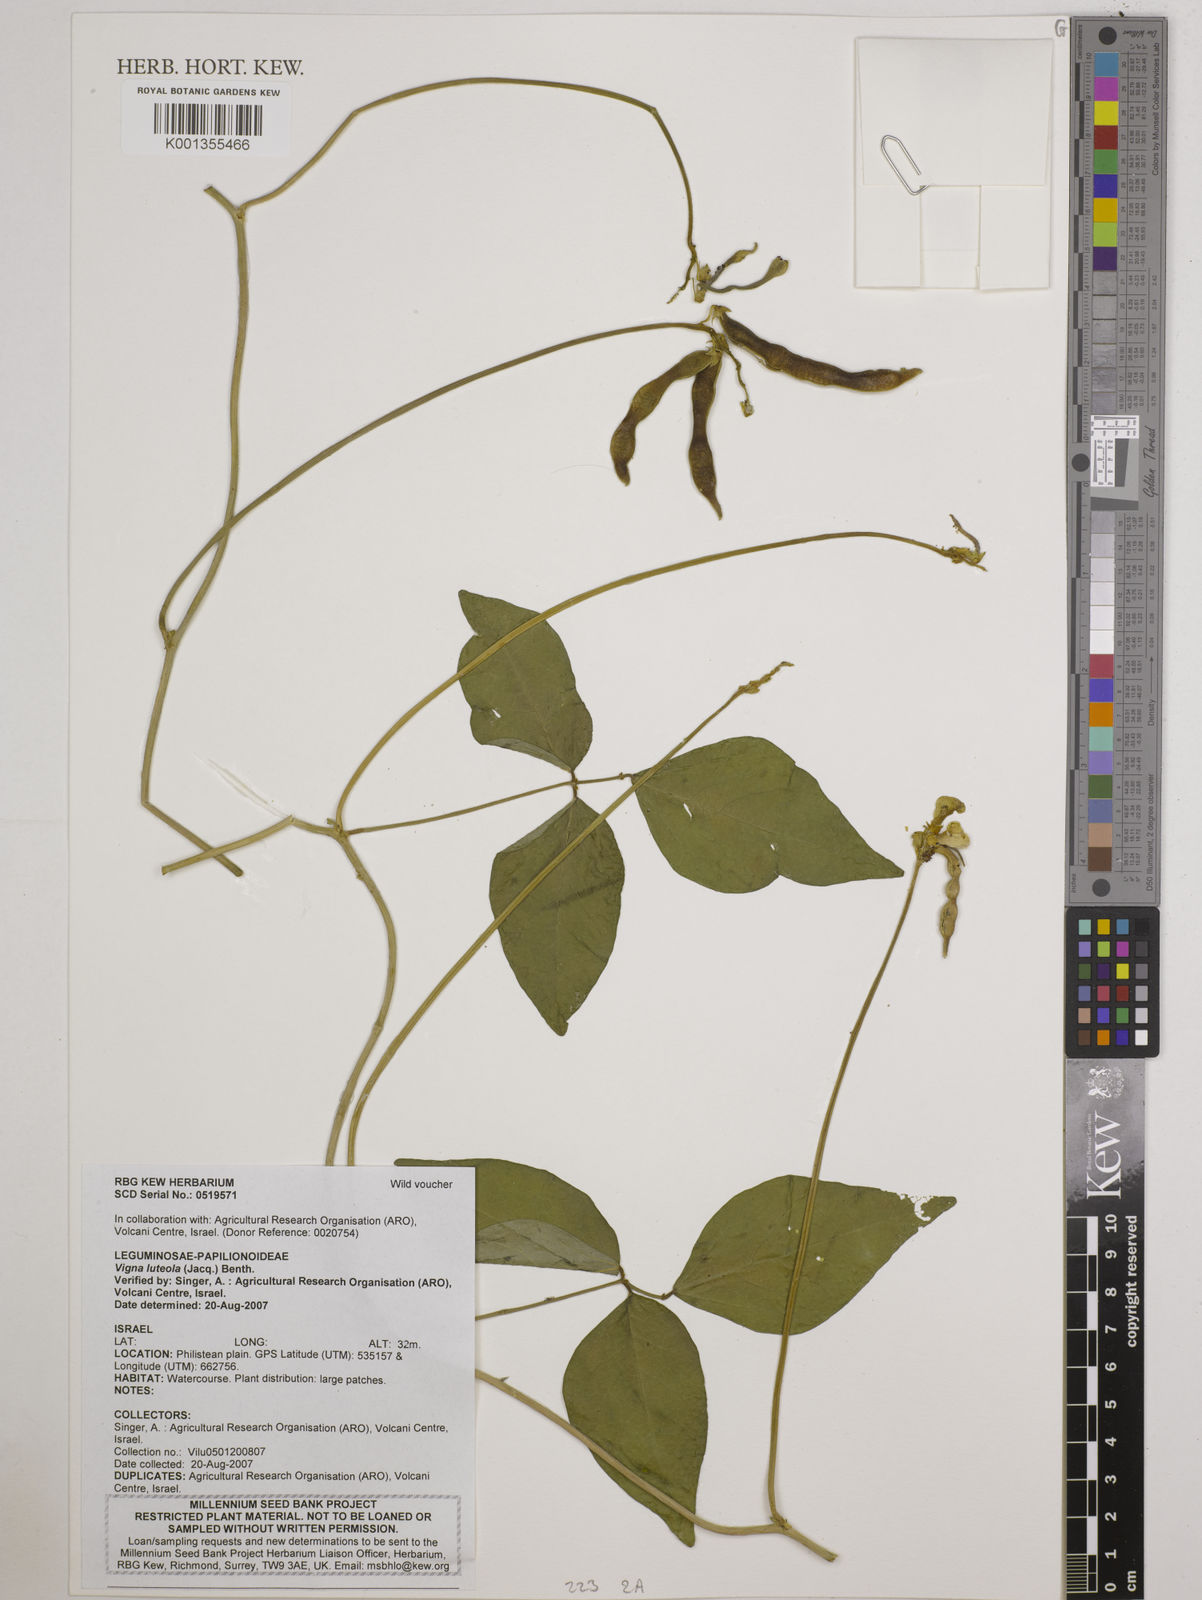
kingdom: Plantae
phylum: Tracheophyta
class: Magnoliopsida
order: Fabales
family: Fabaceae
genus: Vigna
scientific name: Vigna luteola
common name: Hairypod cowpea
